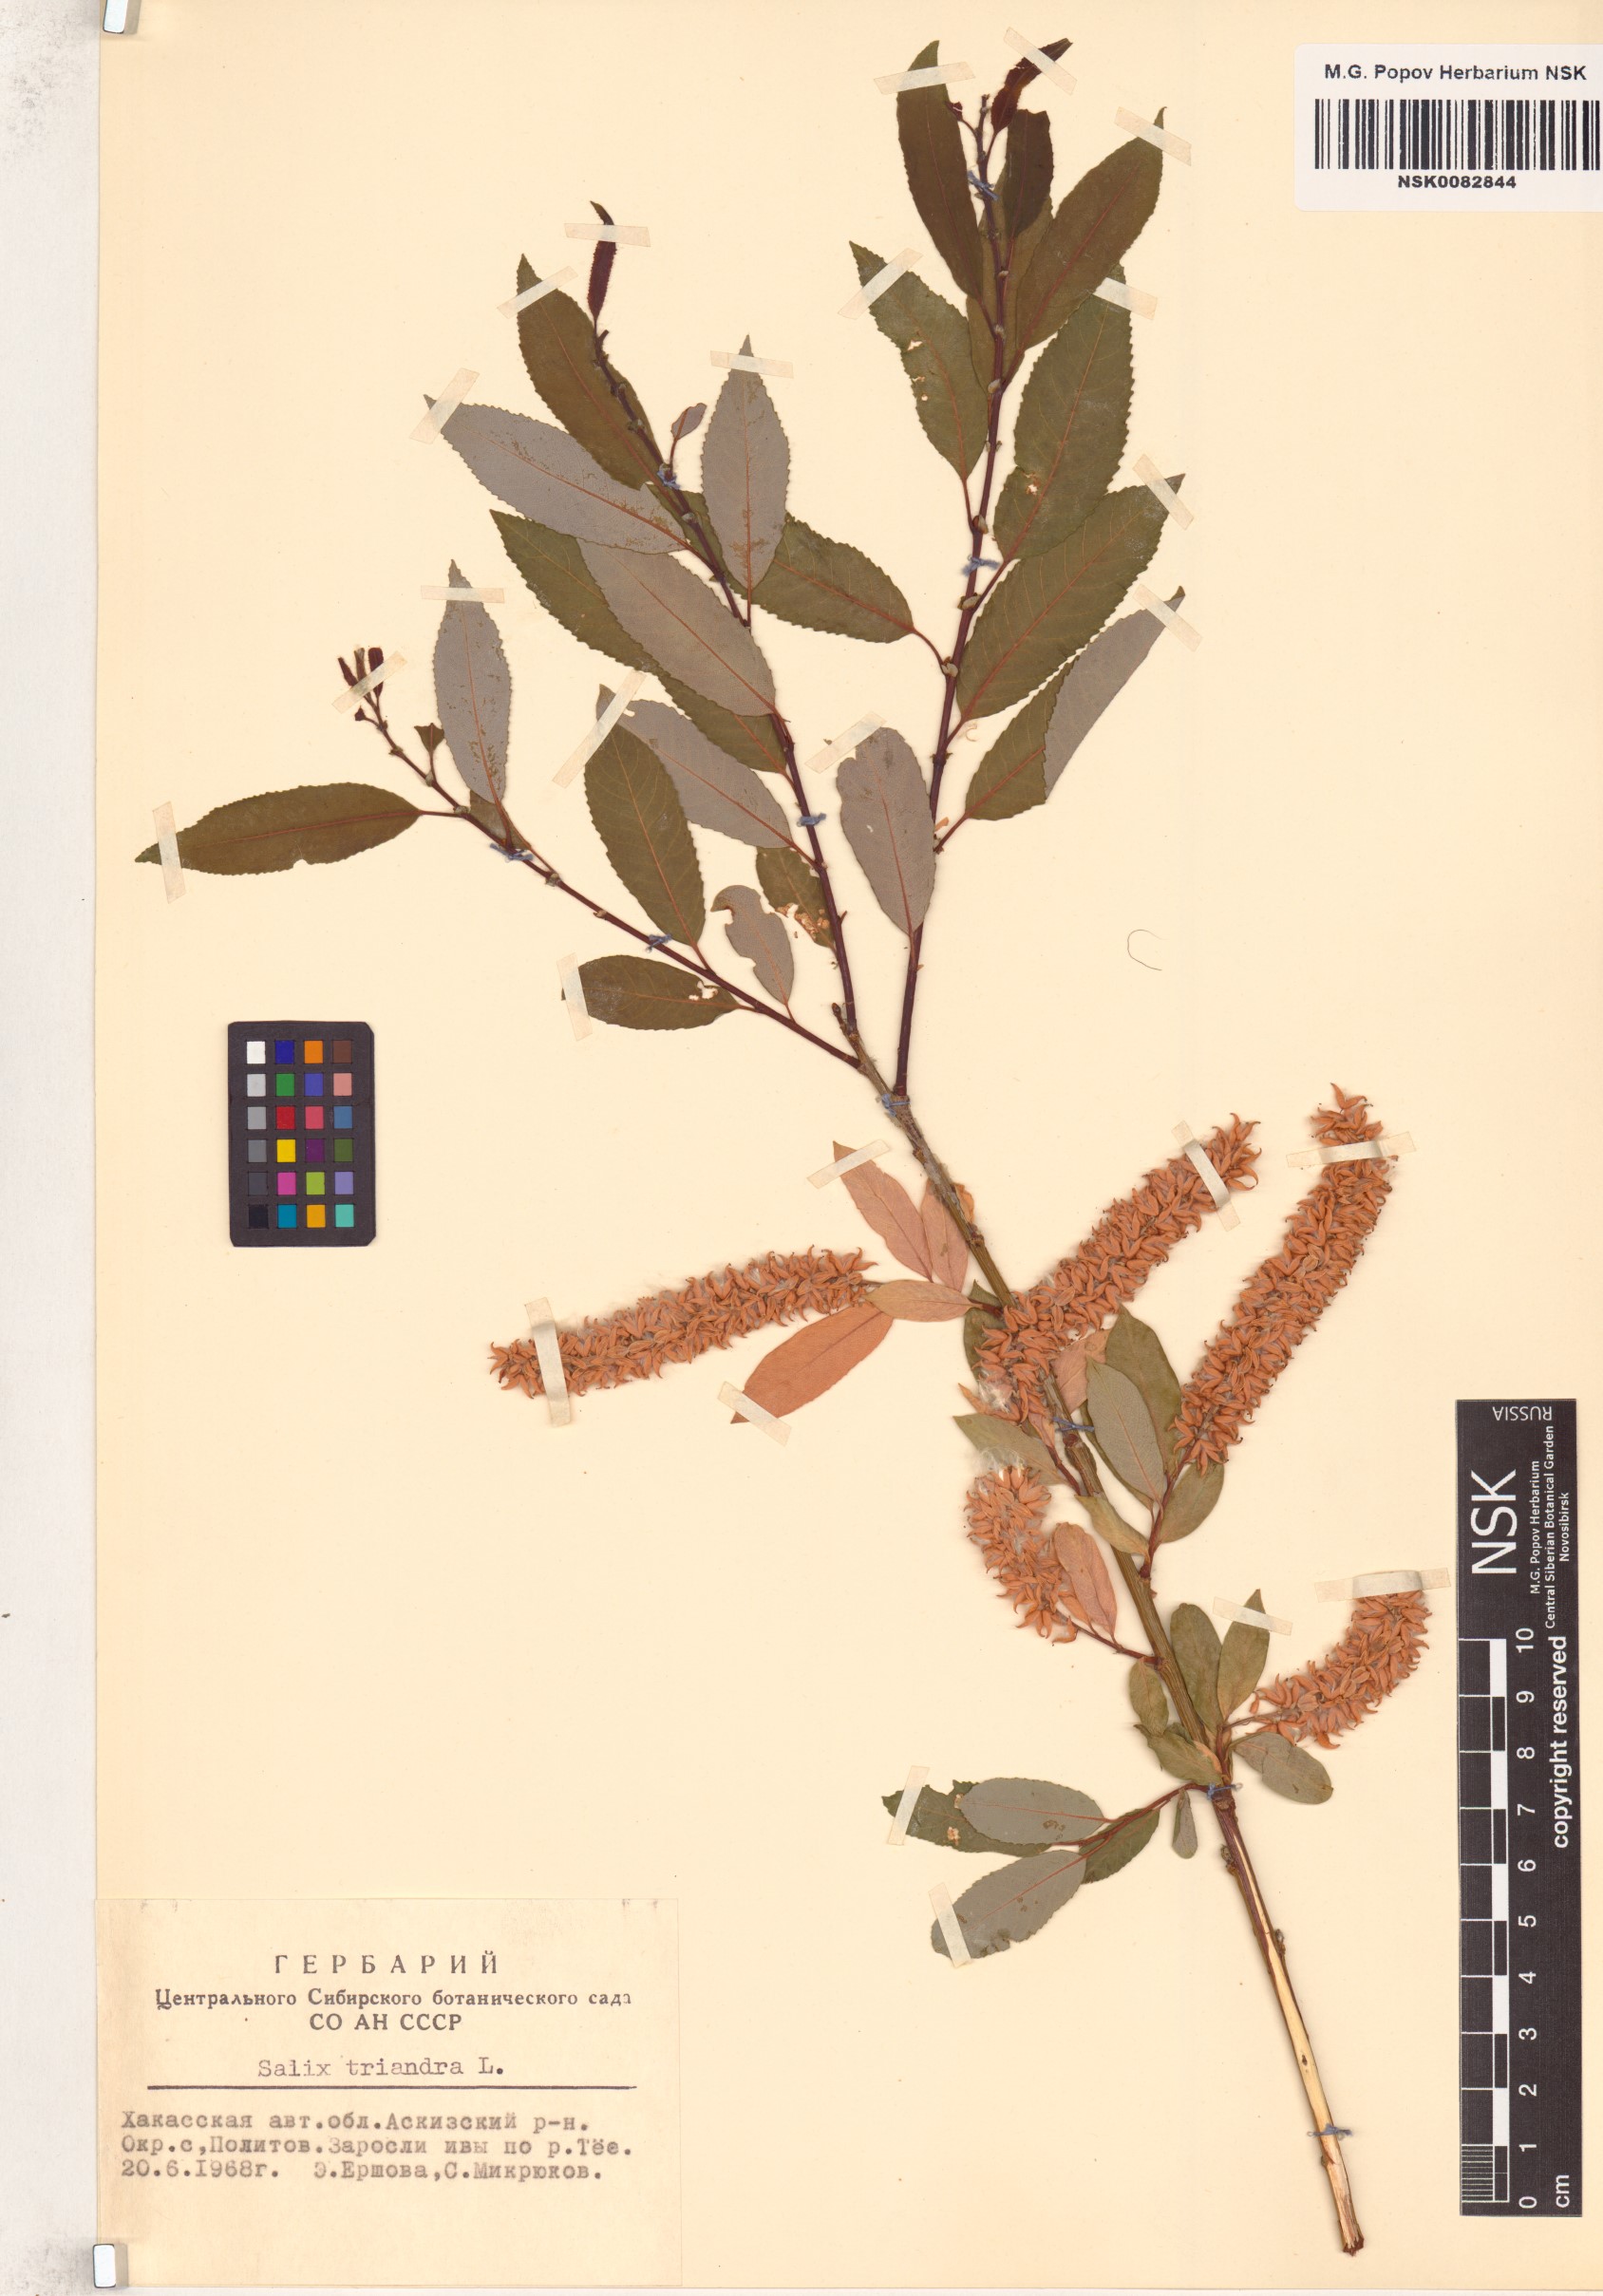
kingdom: Plantae
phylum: Tracheophyta
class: Magnoliopsida
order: Malpighiales
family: Salicaceae
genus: Salix
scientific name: Salix triandra
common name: Almond willow
